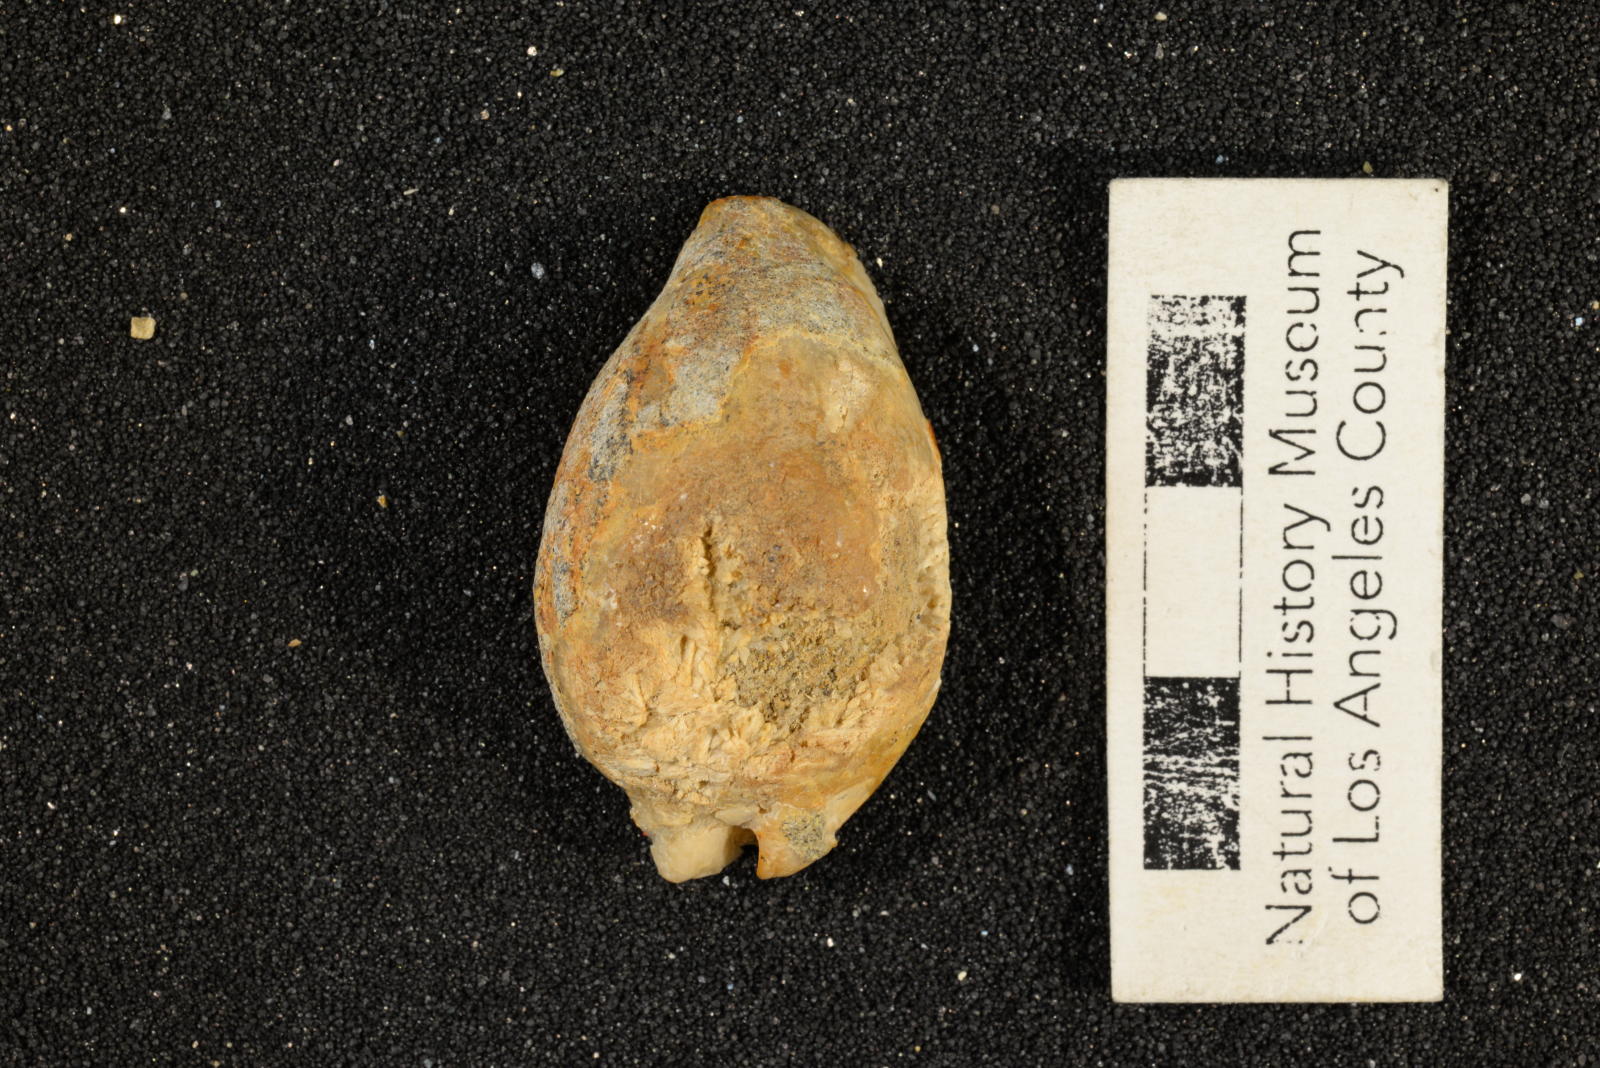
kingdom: Animalia
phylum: Mollusca
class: Gastropoda
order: Littorinimorpha
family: Cypraeidae
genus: Palaeocypraea
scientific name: Palaeocypraea wilfredi
